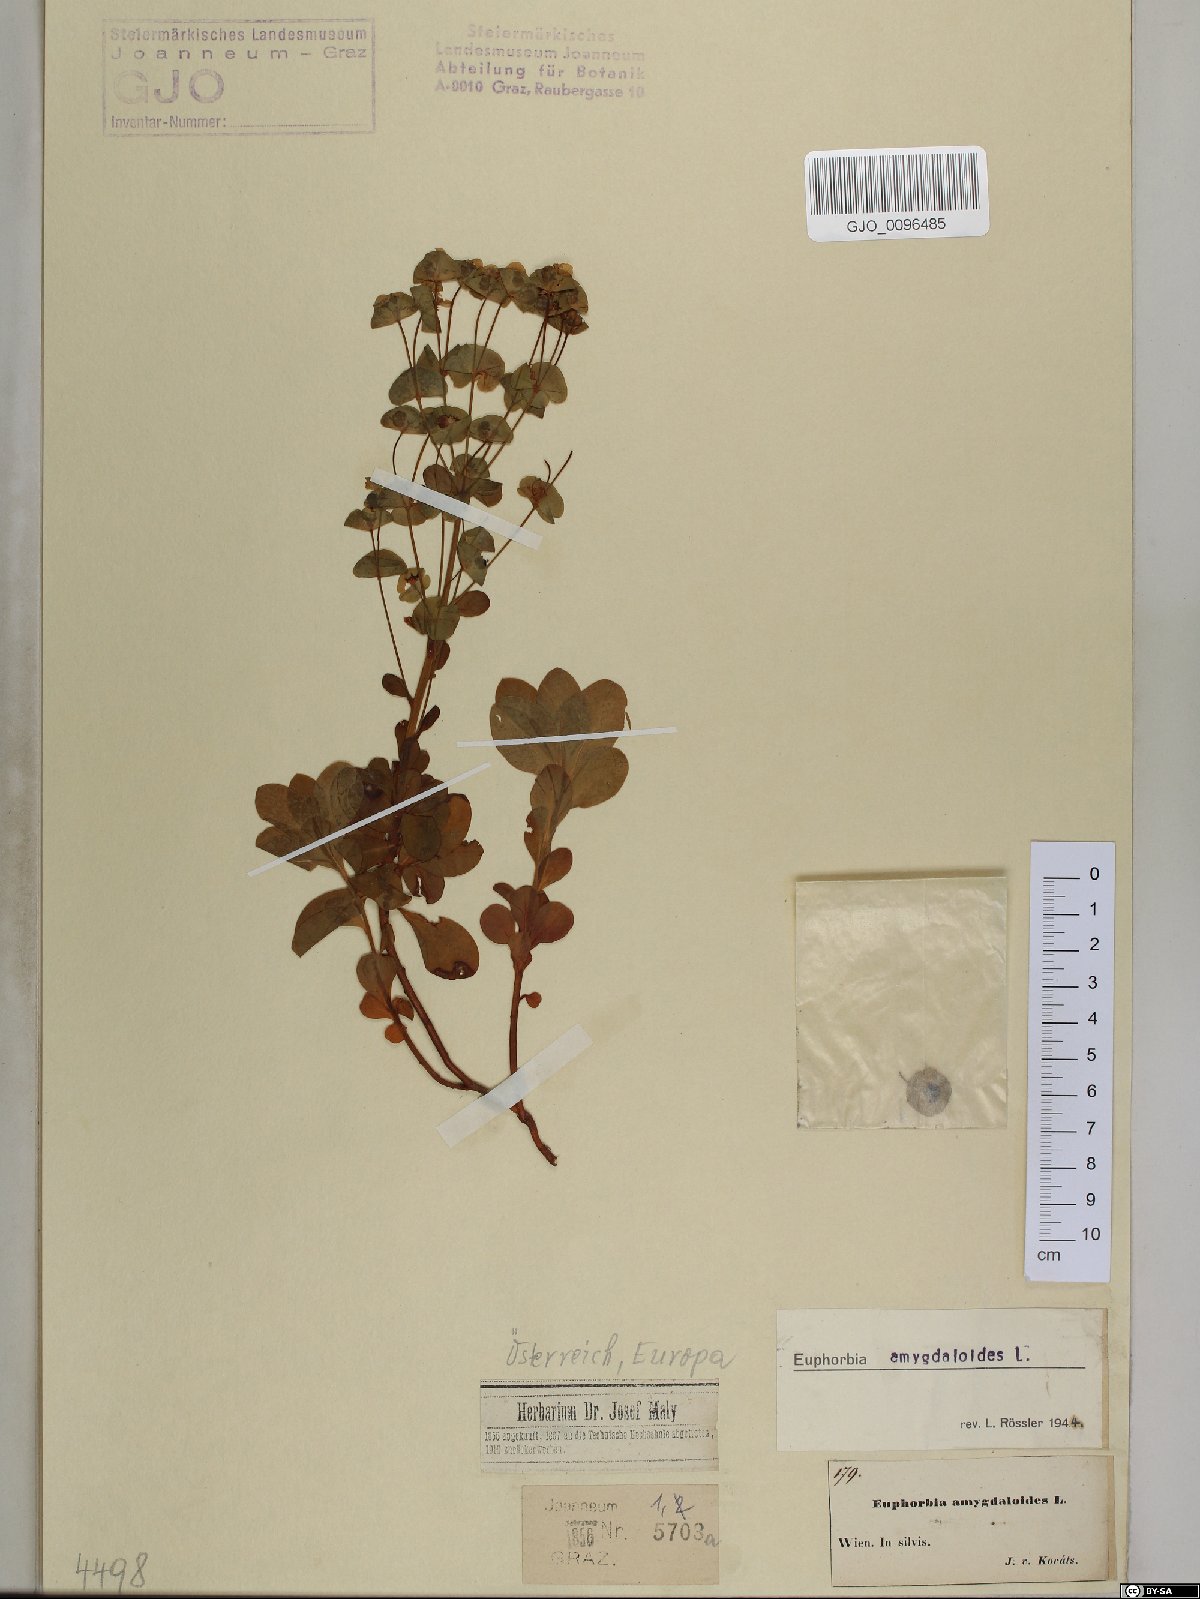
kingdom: Plantae
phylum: Tracheophyta
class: Magnoliopsida
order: Malpighiales
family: Euphorbiaceae
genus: Euphorbia
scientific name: Euphorbia amygdaloides
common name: Wood spurge
